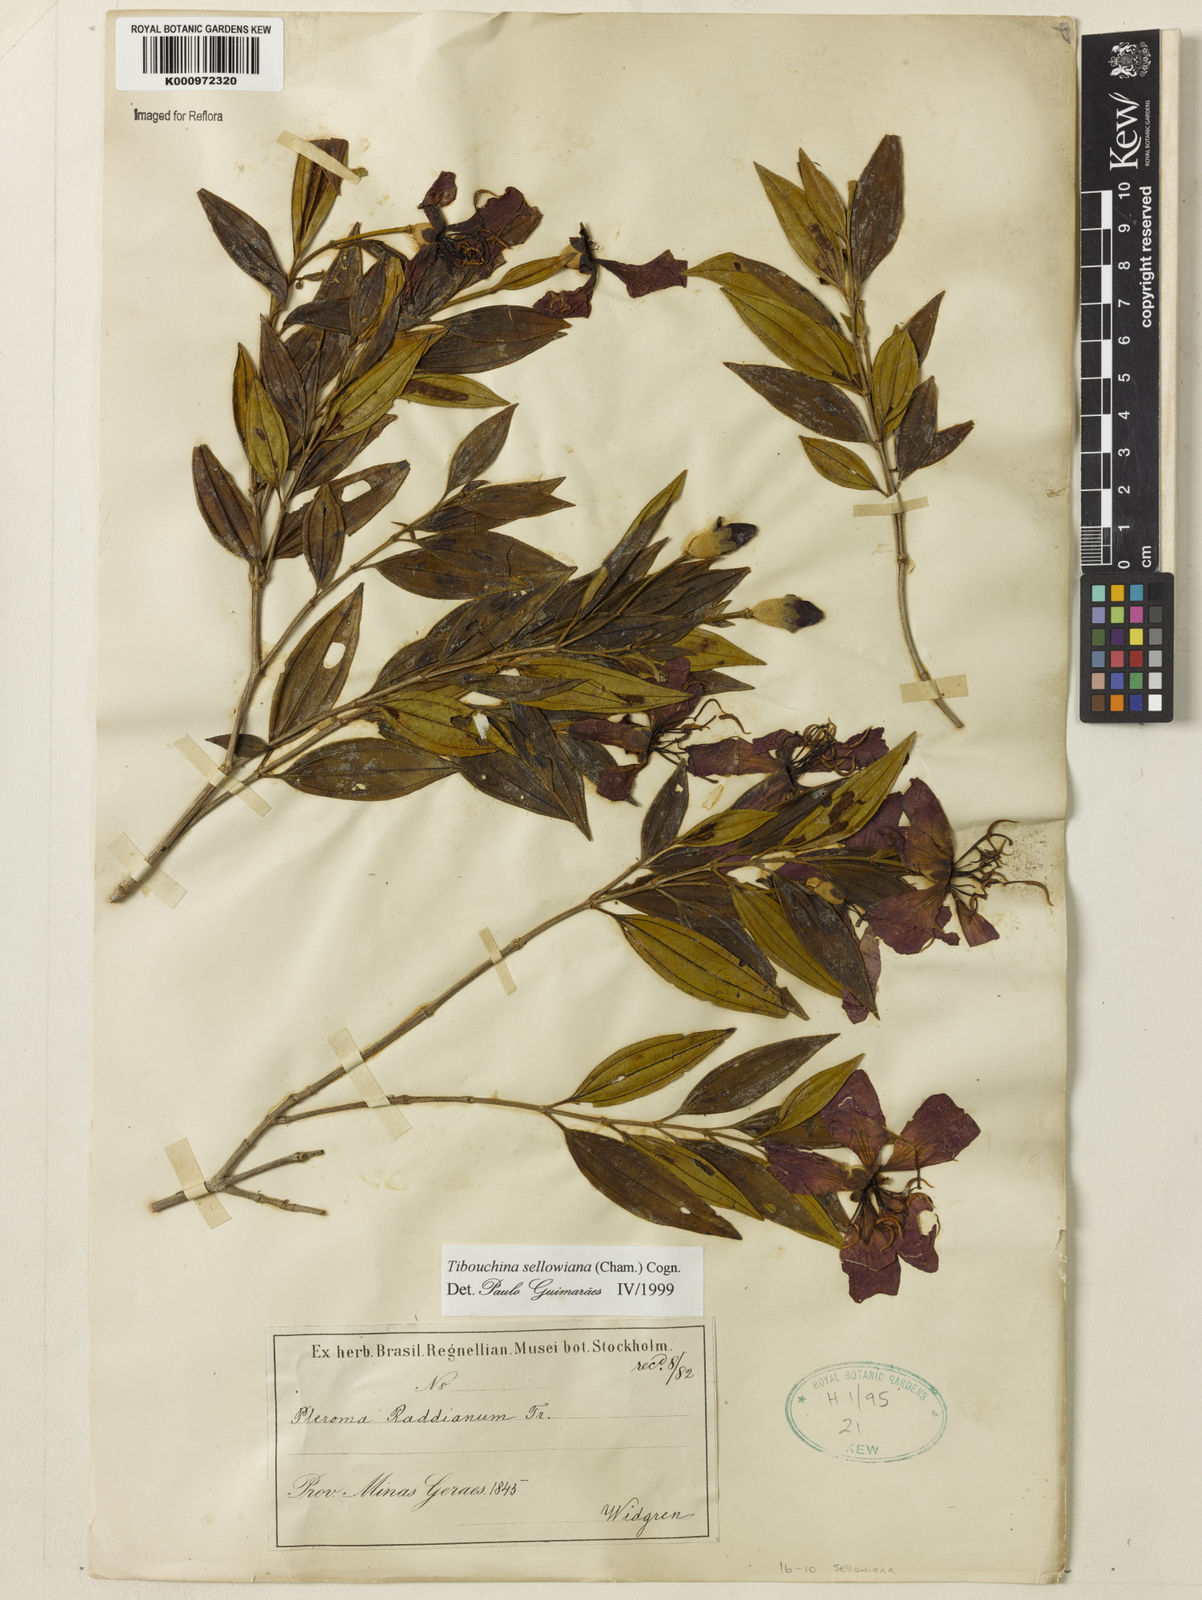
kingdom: Plantae
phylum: Tracheophyta
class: Magnoliopsida
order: Myrtales
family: Melastomataceae
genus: Pleroma
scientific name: Pleroma sellowianum
